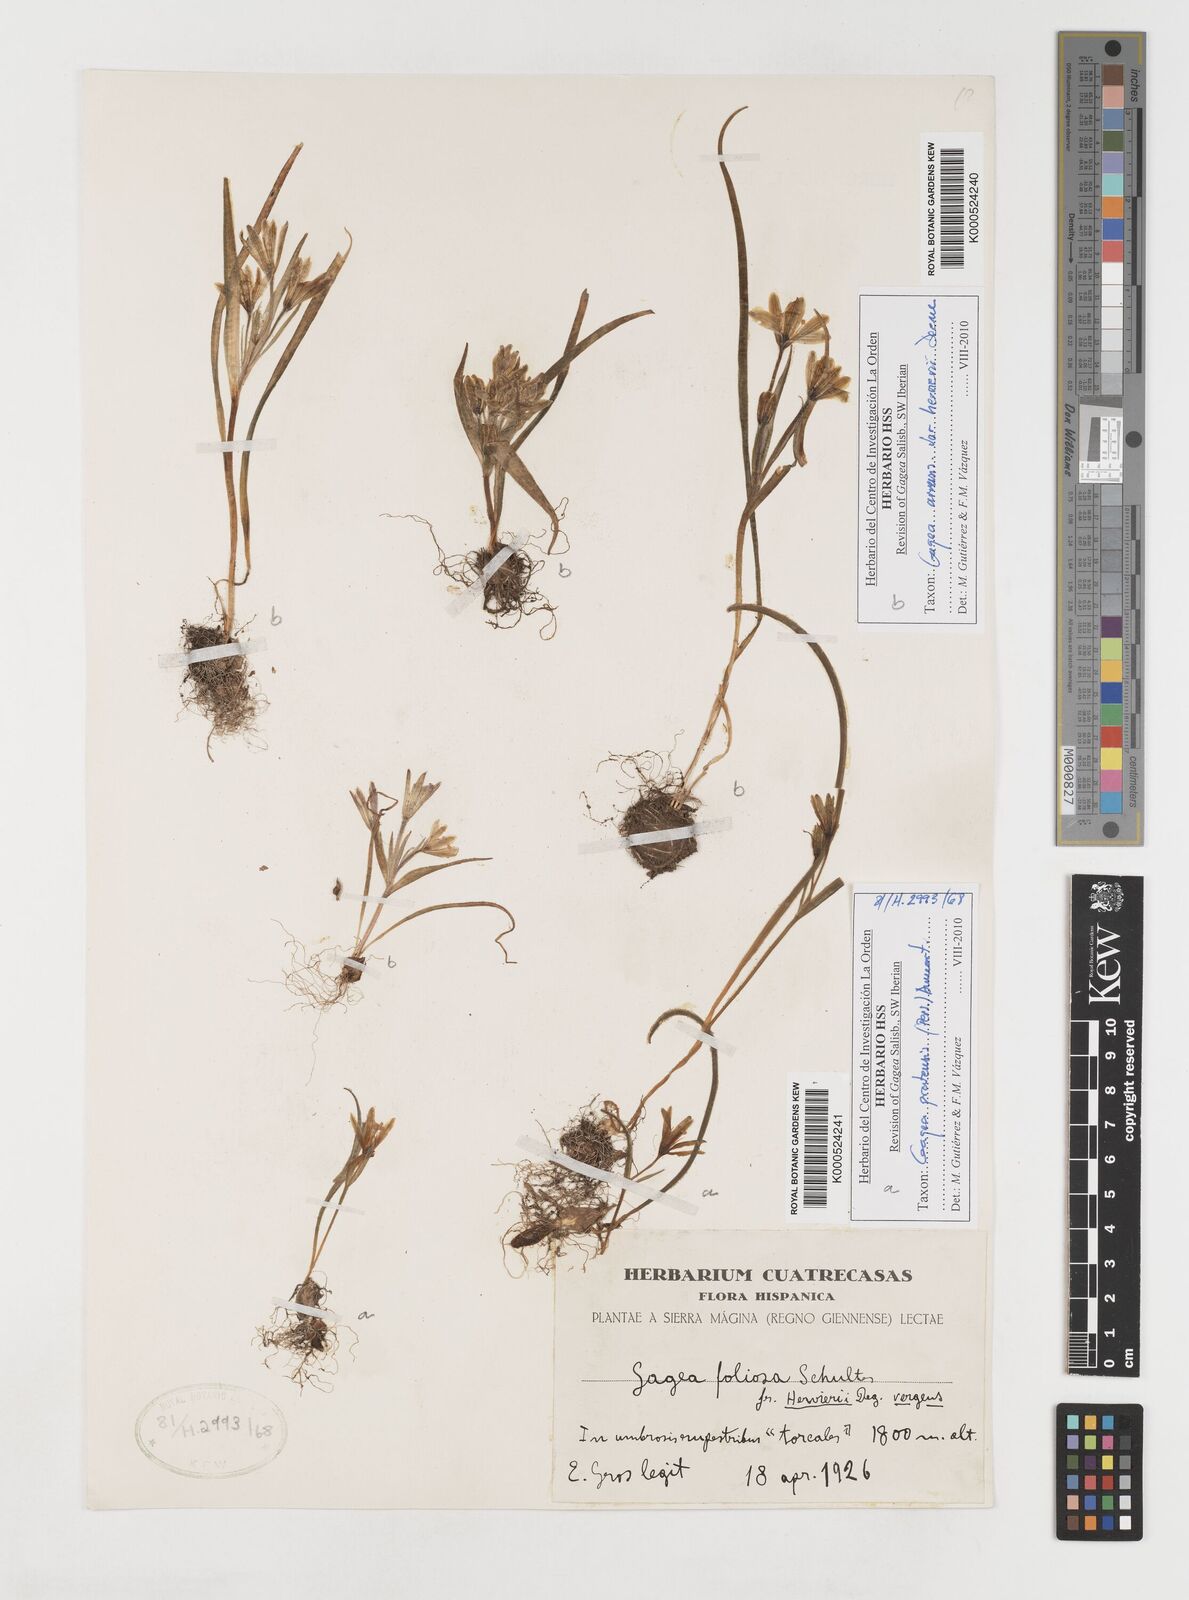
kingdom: Plantae
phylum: Tracheophyta
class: Liliopsida
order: Liliales
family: Liliaceae
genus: Gagea
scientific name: Gagea minima
